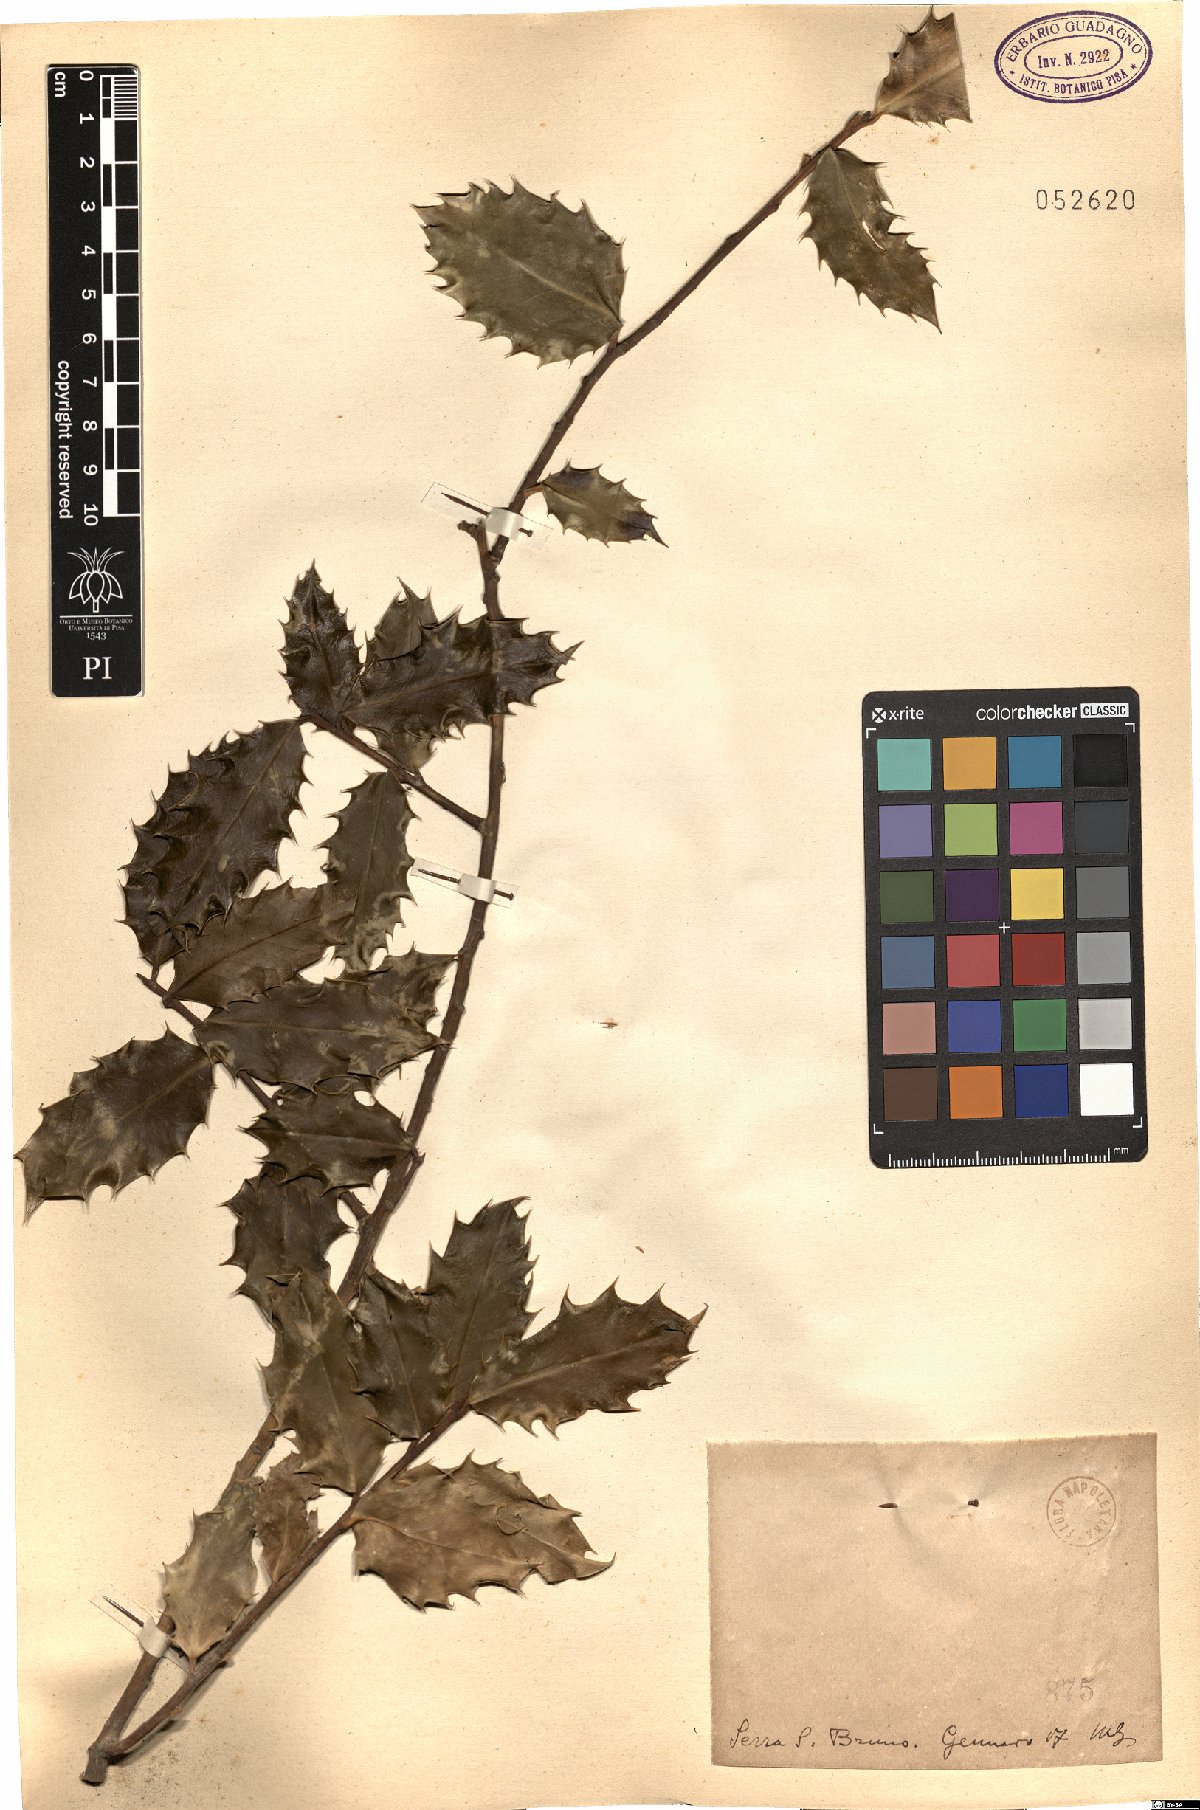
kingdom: Plantae
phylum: Tracheophyta
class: Magnoliopsida
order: Aquifoliales
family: Aquifoliaceae
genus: Ilex
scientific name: Ilex
